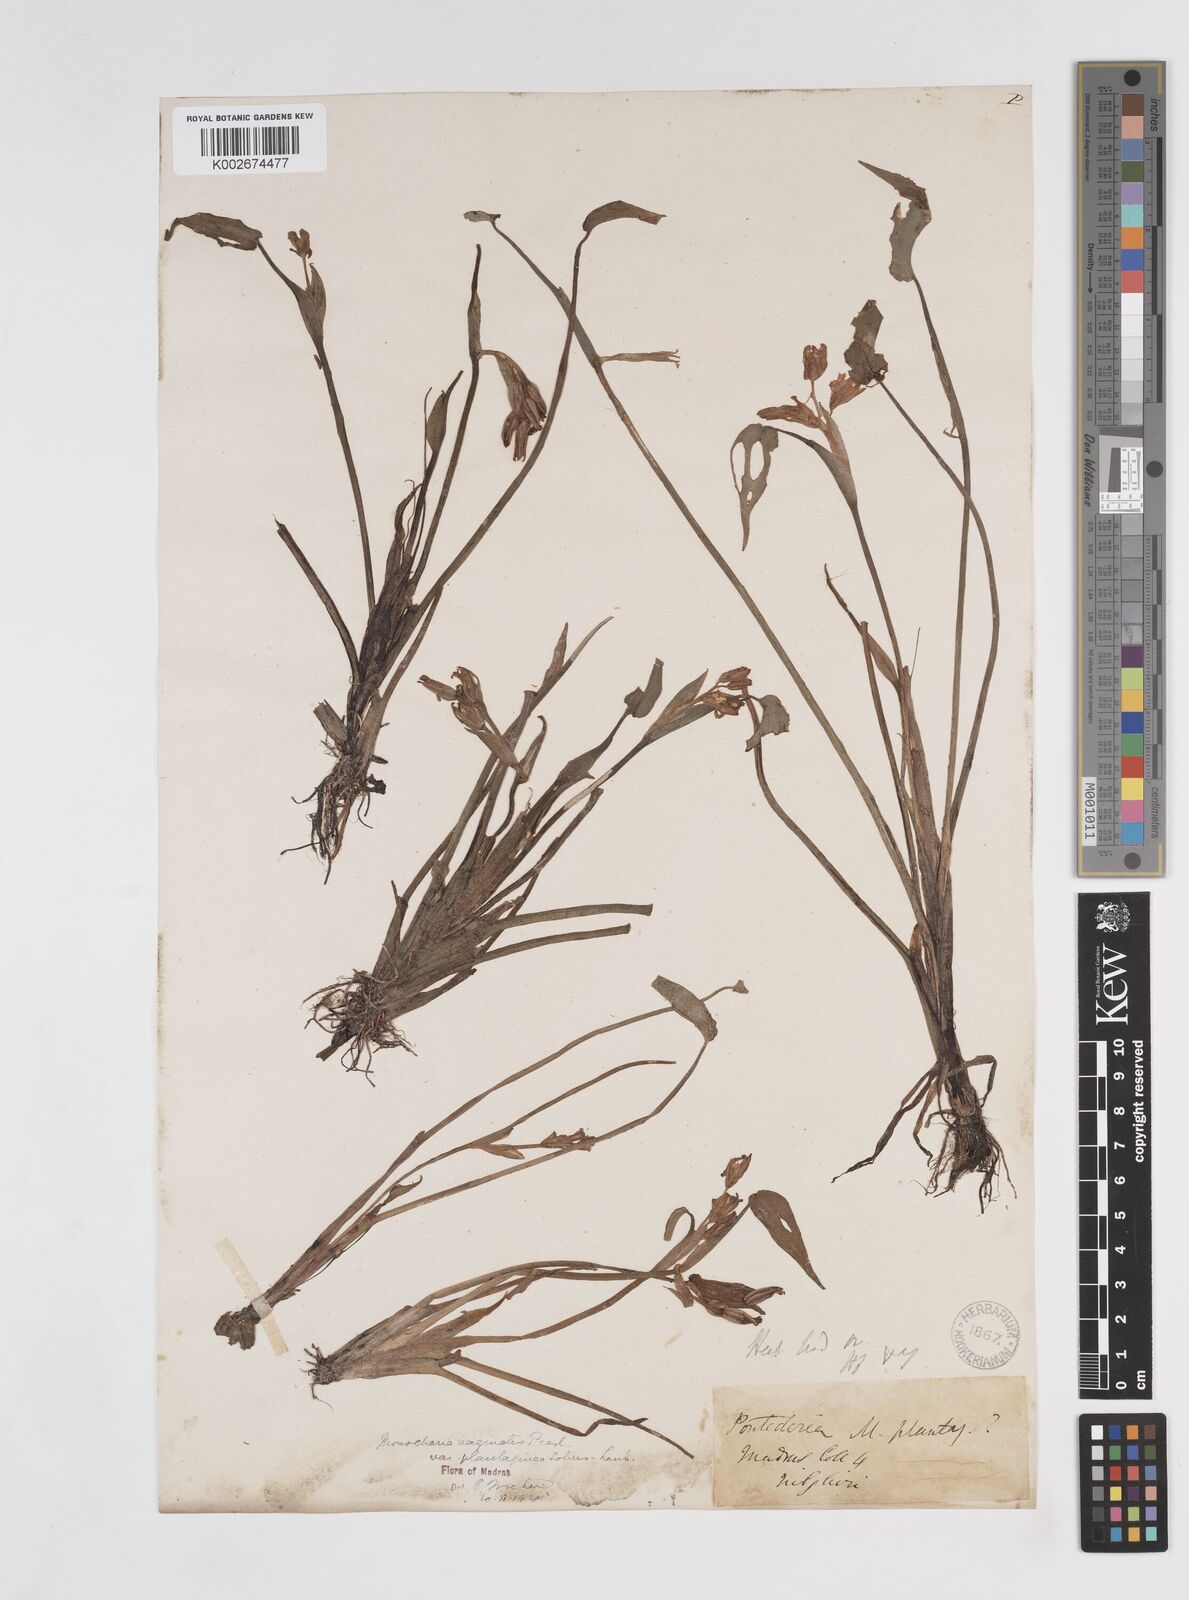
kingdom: Plantae
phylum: Tracheophyta
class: Liliopsida
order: Commelinales
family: Pontederiaceae
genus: Pontederia
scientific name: Pontederia vaginalis
